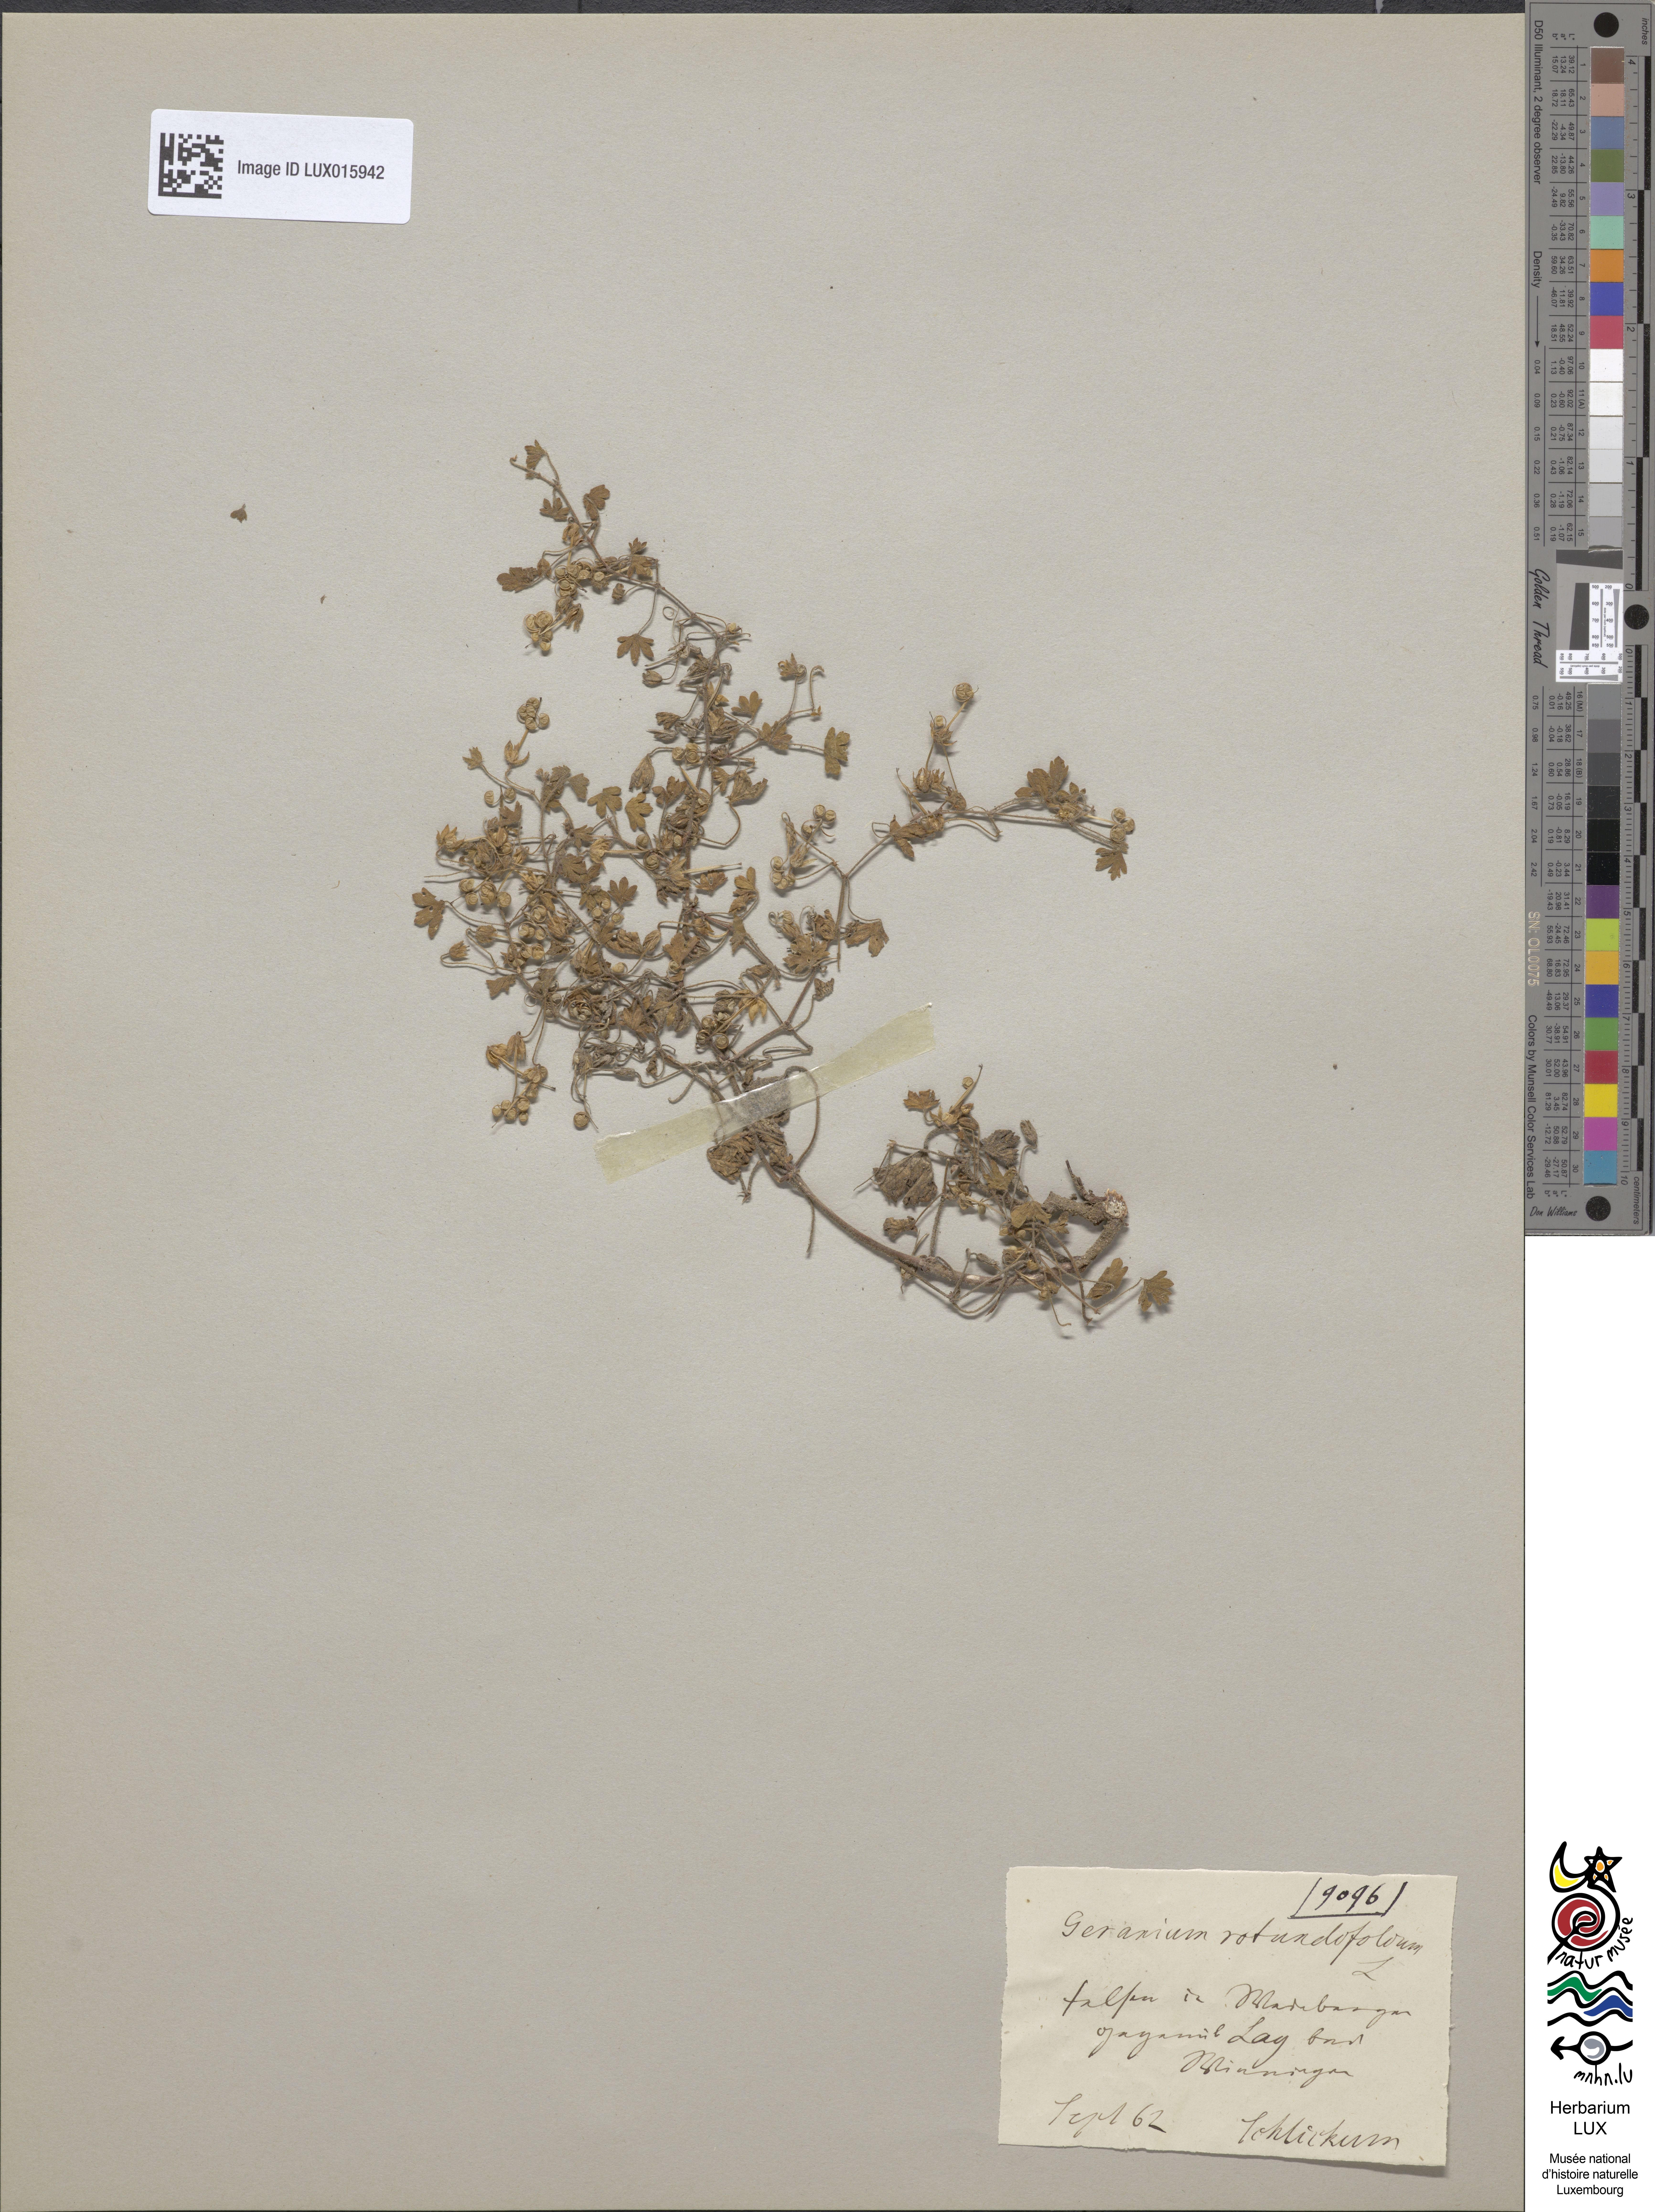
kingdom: Plantae
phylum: Tracheophyta
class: Magnoliopsida
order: Geraniales
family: Geraniaceae
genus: Geranium
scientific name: Geranium rotundifolium
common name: Round-leaved crane's-bill
